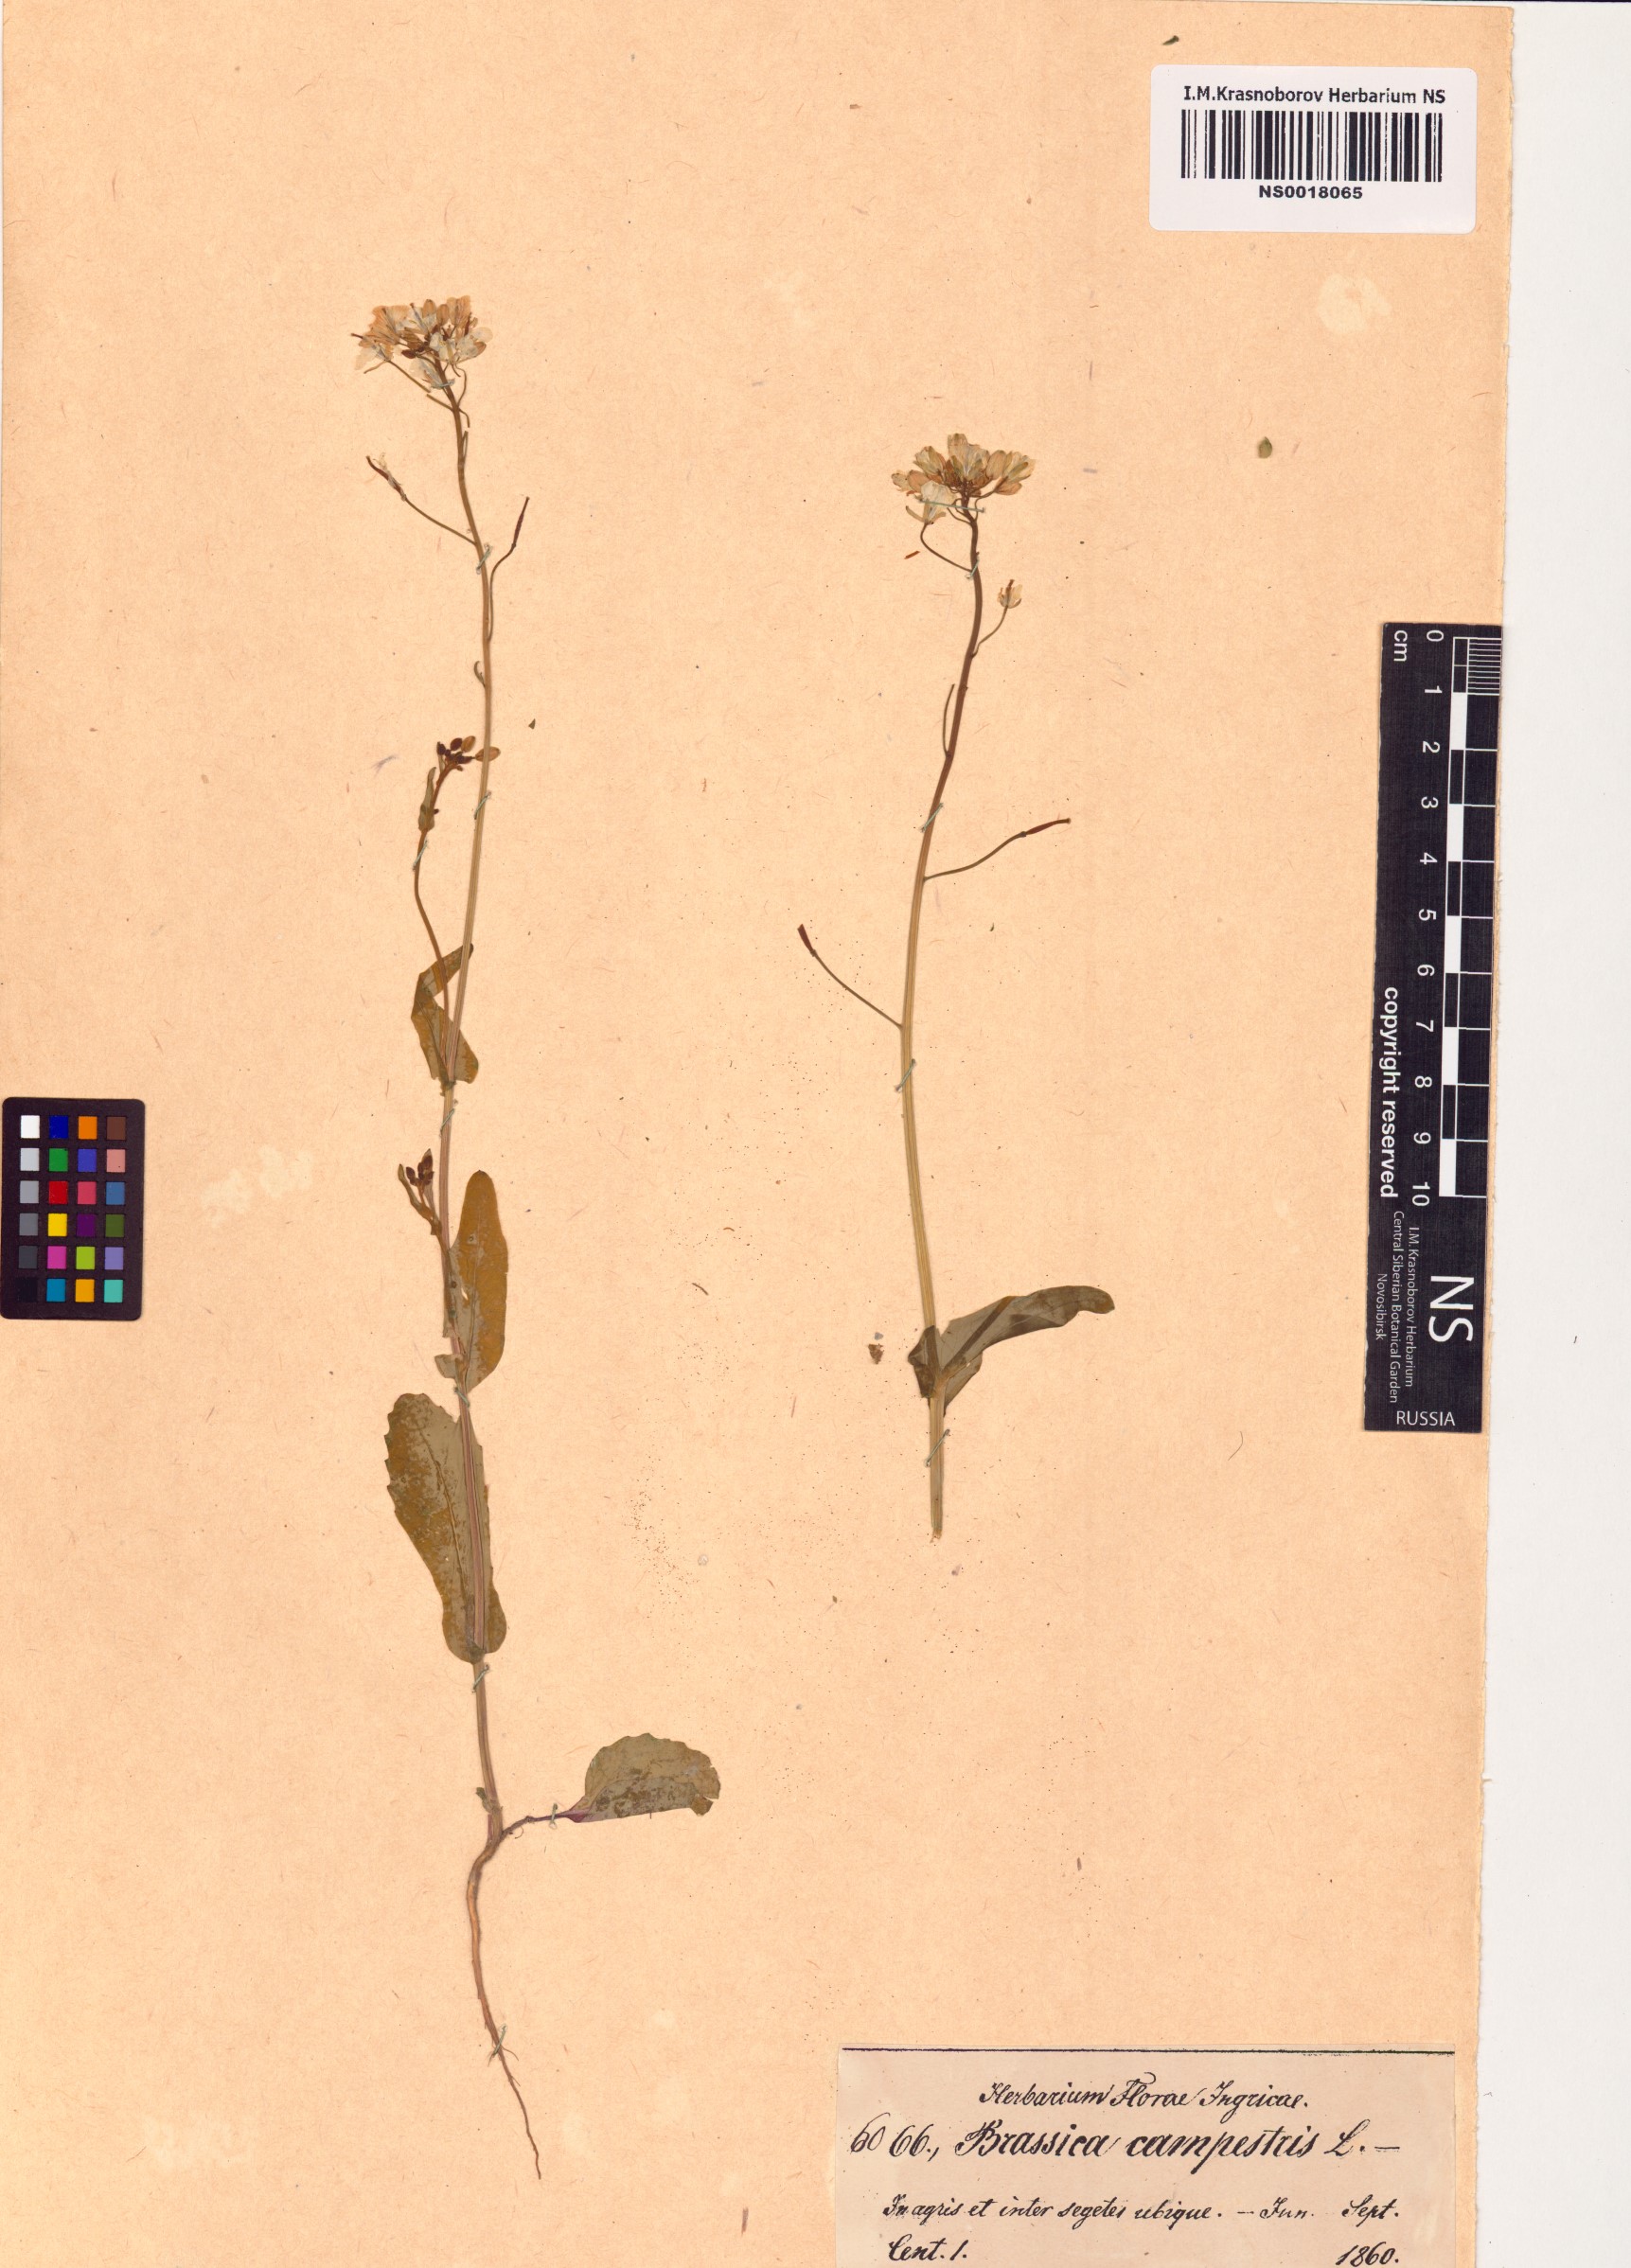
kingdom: Plantae
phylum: Tracheophyta
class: Magnoliopsida
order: Brassicales
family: Brassicaceae
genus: Brassica
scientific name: Brassica rapa
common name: Field mustard
